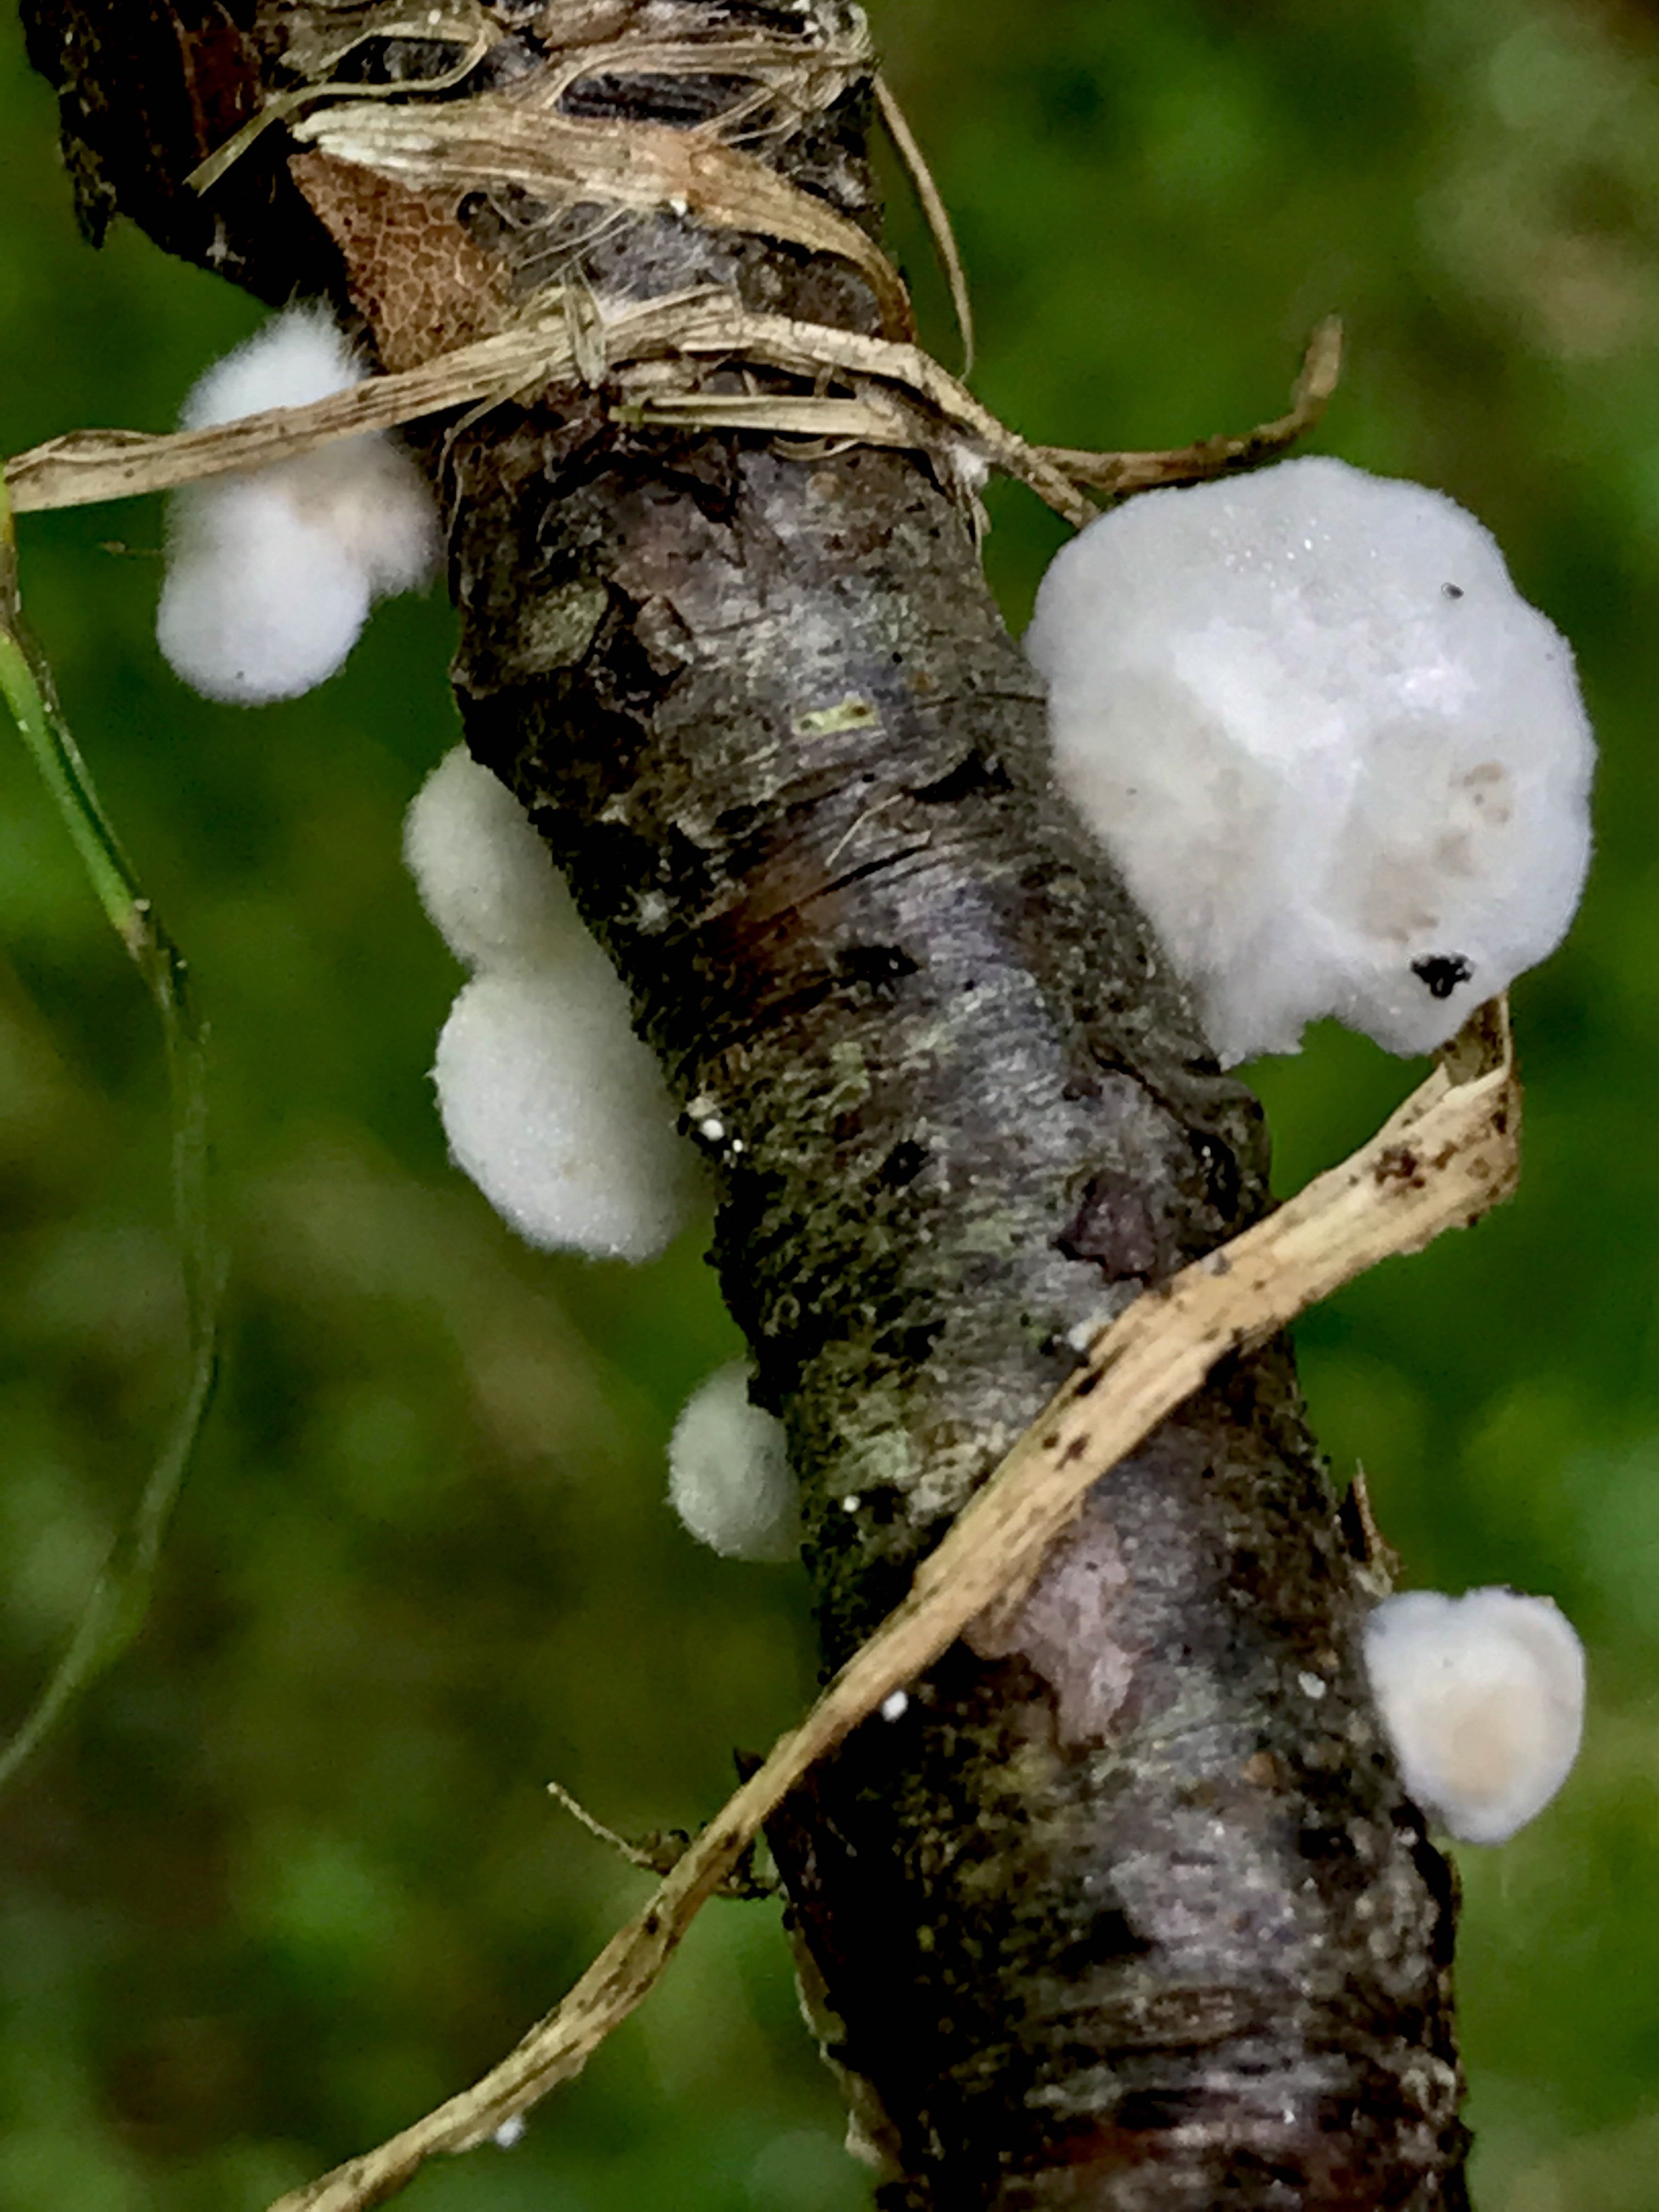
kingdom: Fungi
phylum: Basidiomycota
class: Agaricomycetes
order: Agaricales
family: Crepidotaceae
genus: Crepidotus
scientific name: Crepidotus
